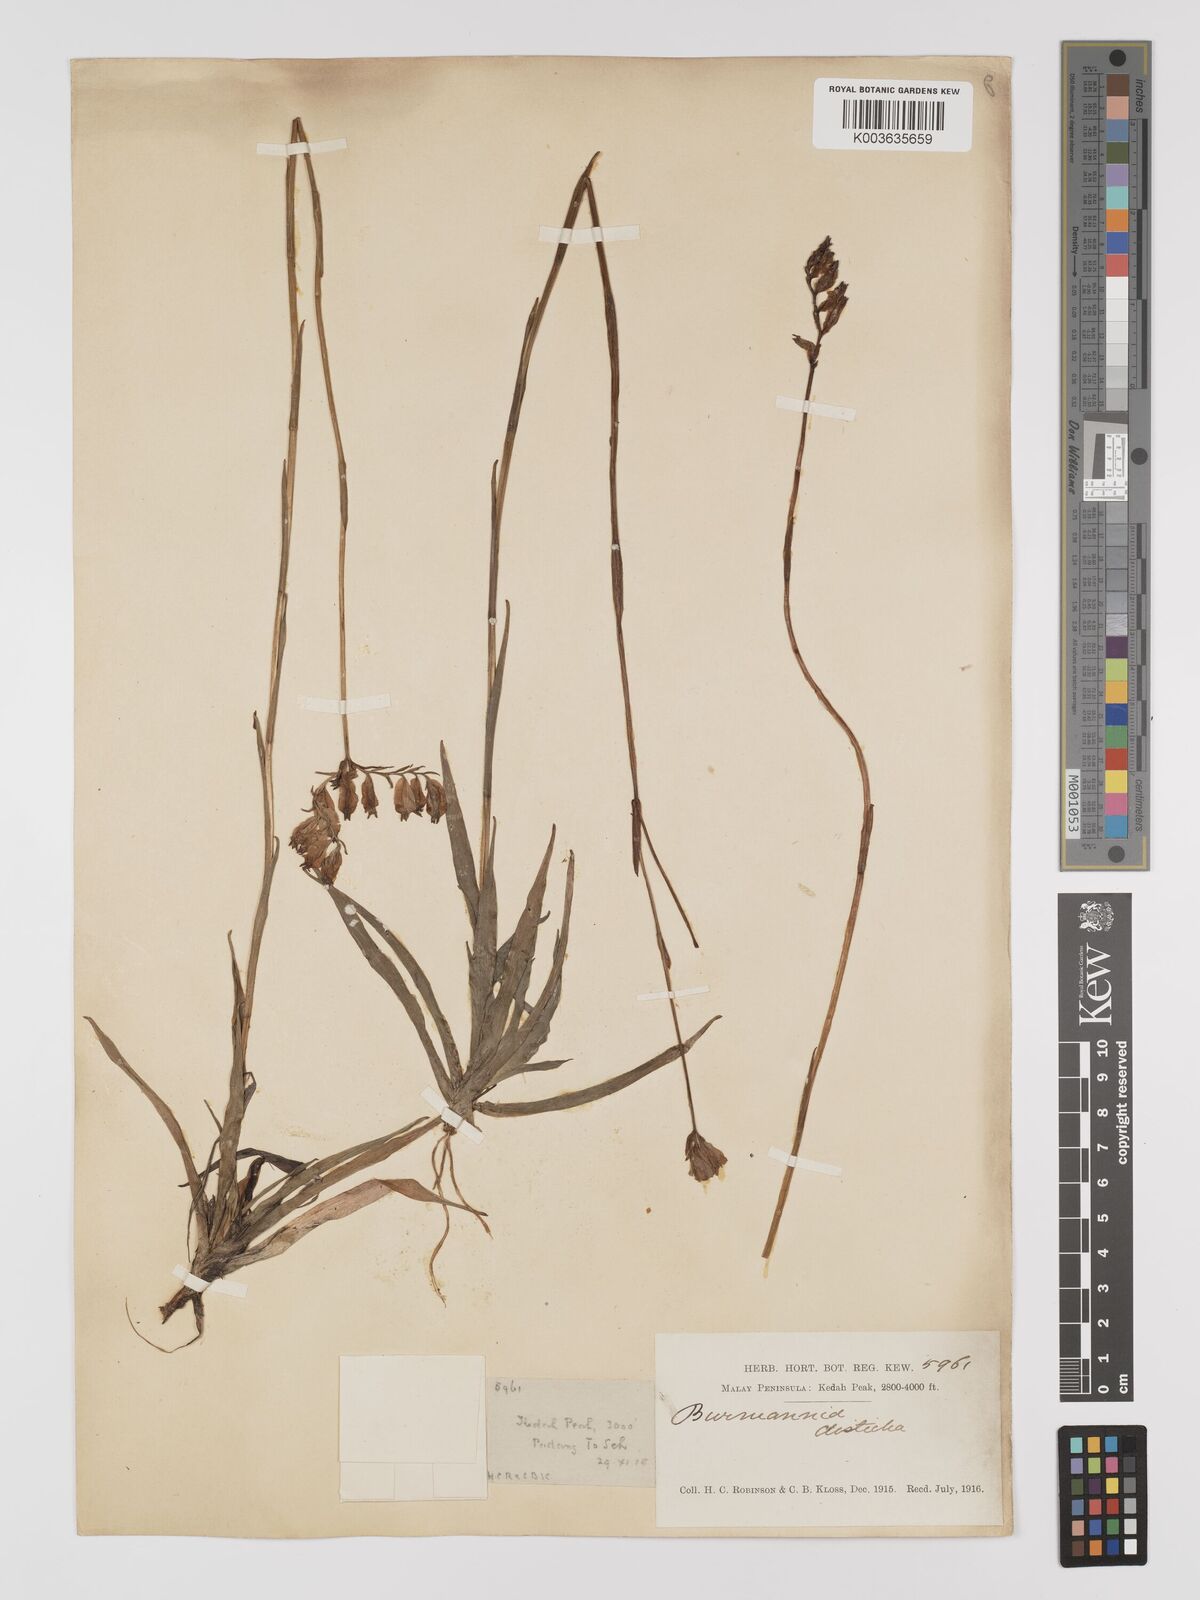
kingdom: Plantae
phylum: Tracheophyta
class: Liliopsida
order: Dioscoreales
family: Burmanniaceae
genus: Burmannia
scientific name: Burmannia disticha
